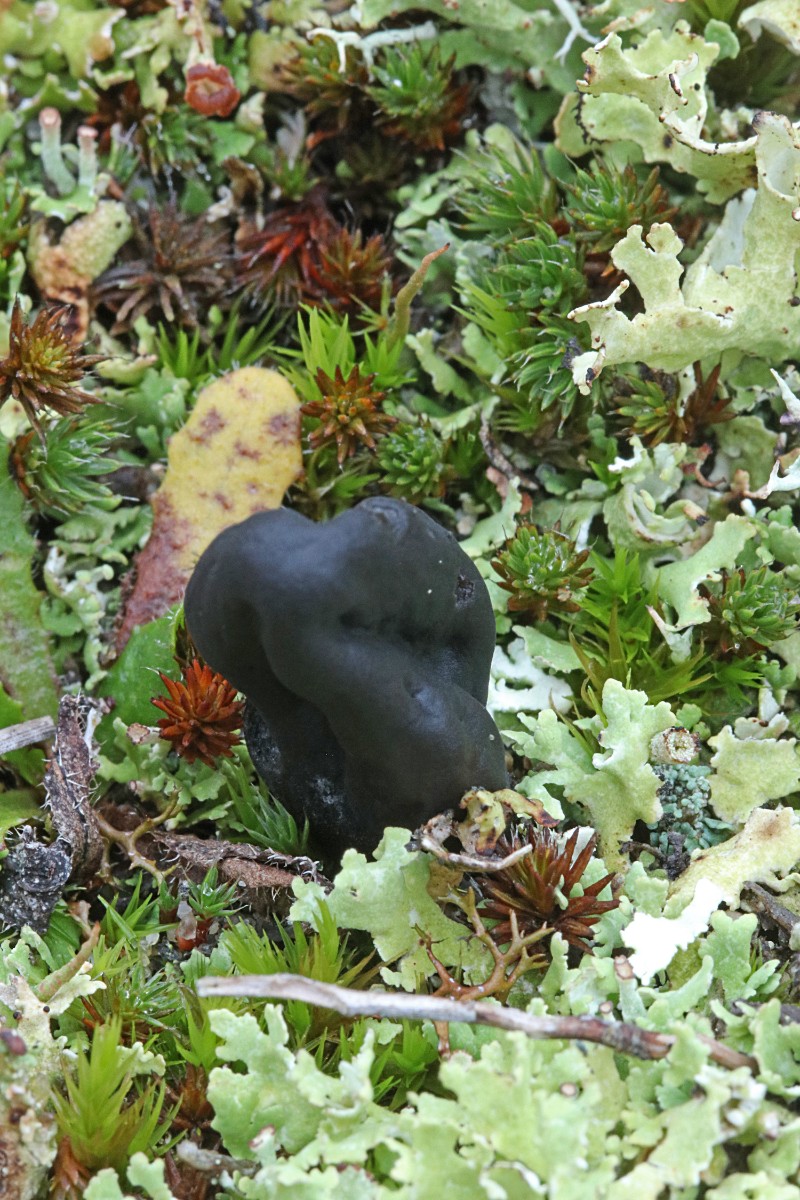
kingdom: Fungi
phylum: Ascomycota
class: Geoglossomycetes
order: Geoglossales
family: Geoglossaceae
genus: Sabuloglossum
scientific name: Sabuloglossum arenarium
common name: klit-jordtunge
